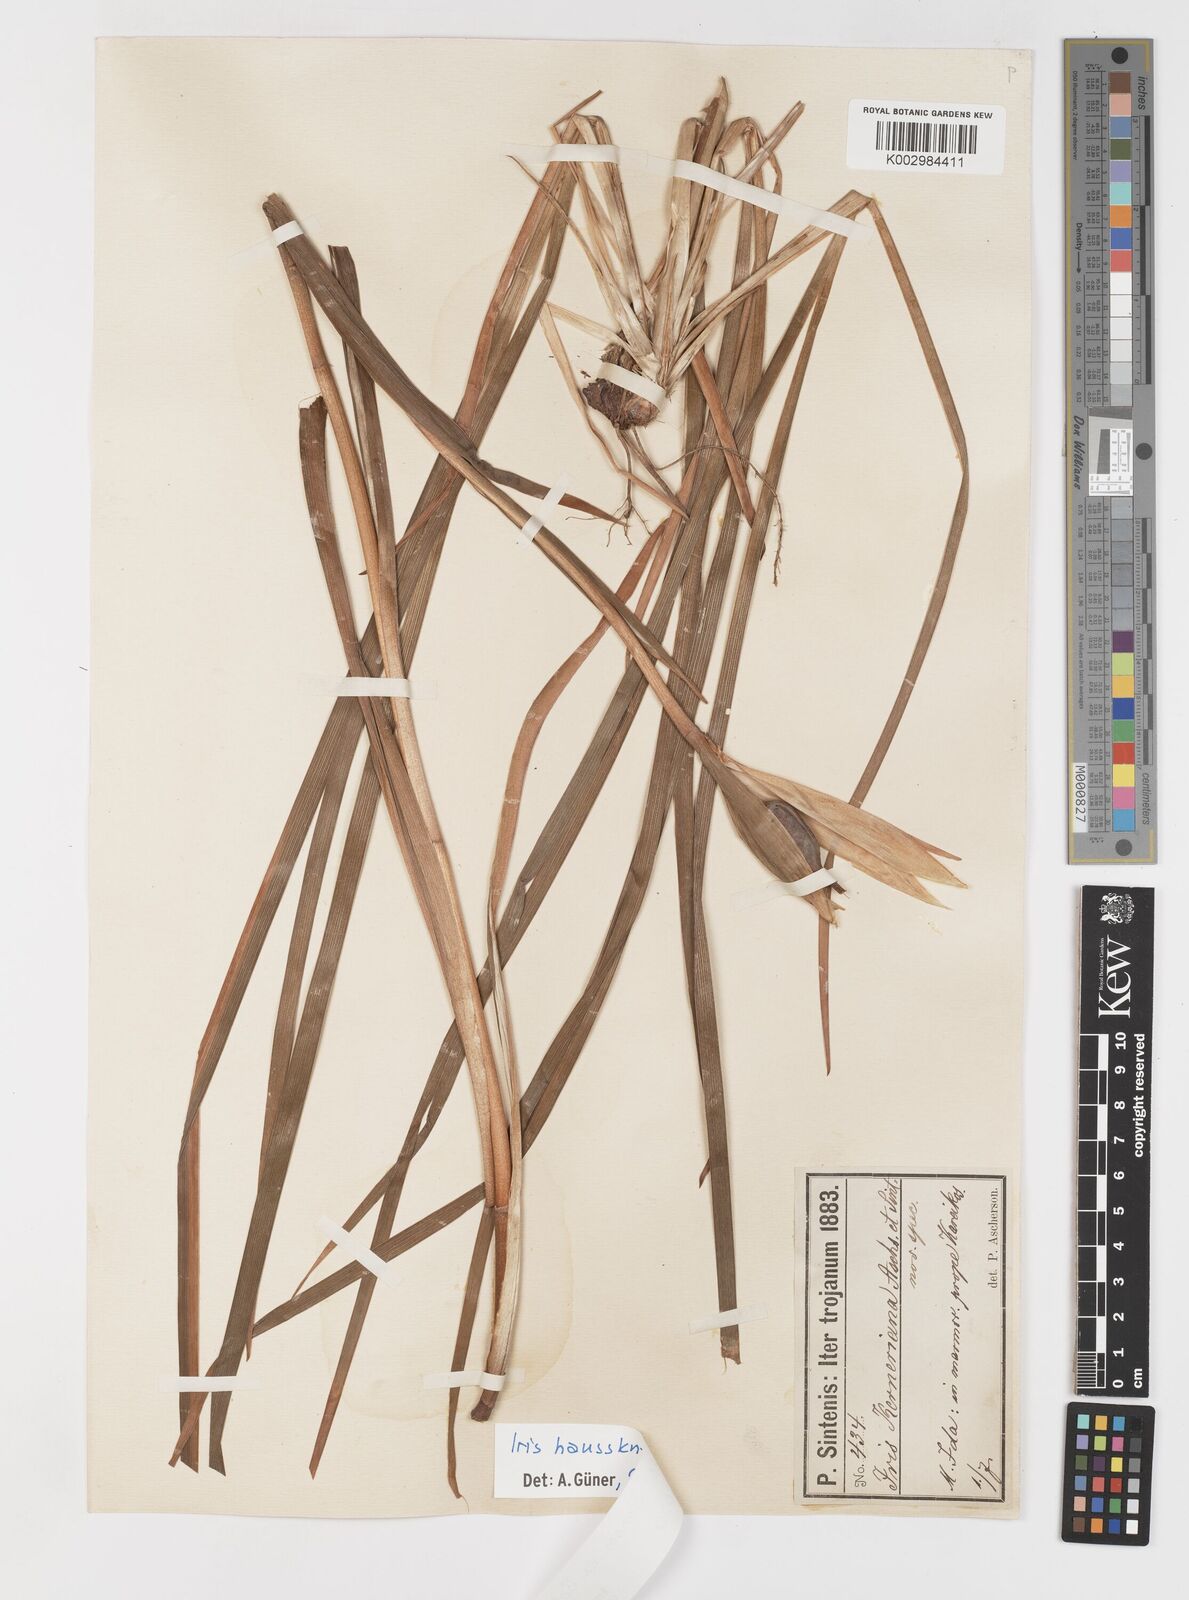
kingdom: Plantae
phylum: Tracheophyta
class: Liliopsida
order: Asparagales
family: Iridaceae
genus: Iris
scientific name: Iris haussknechtii
